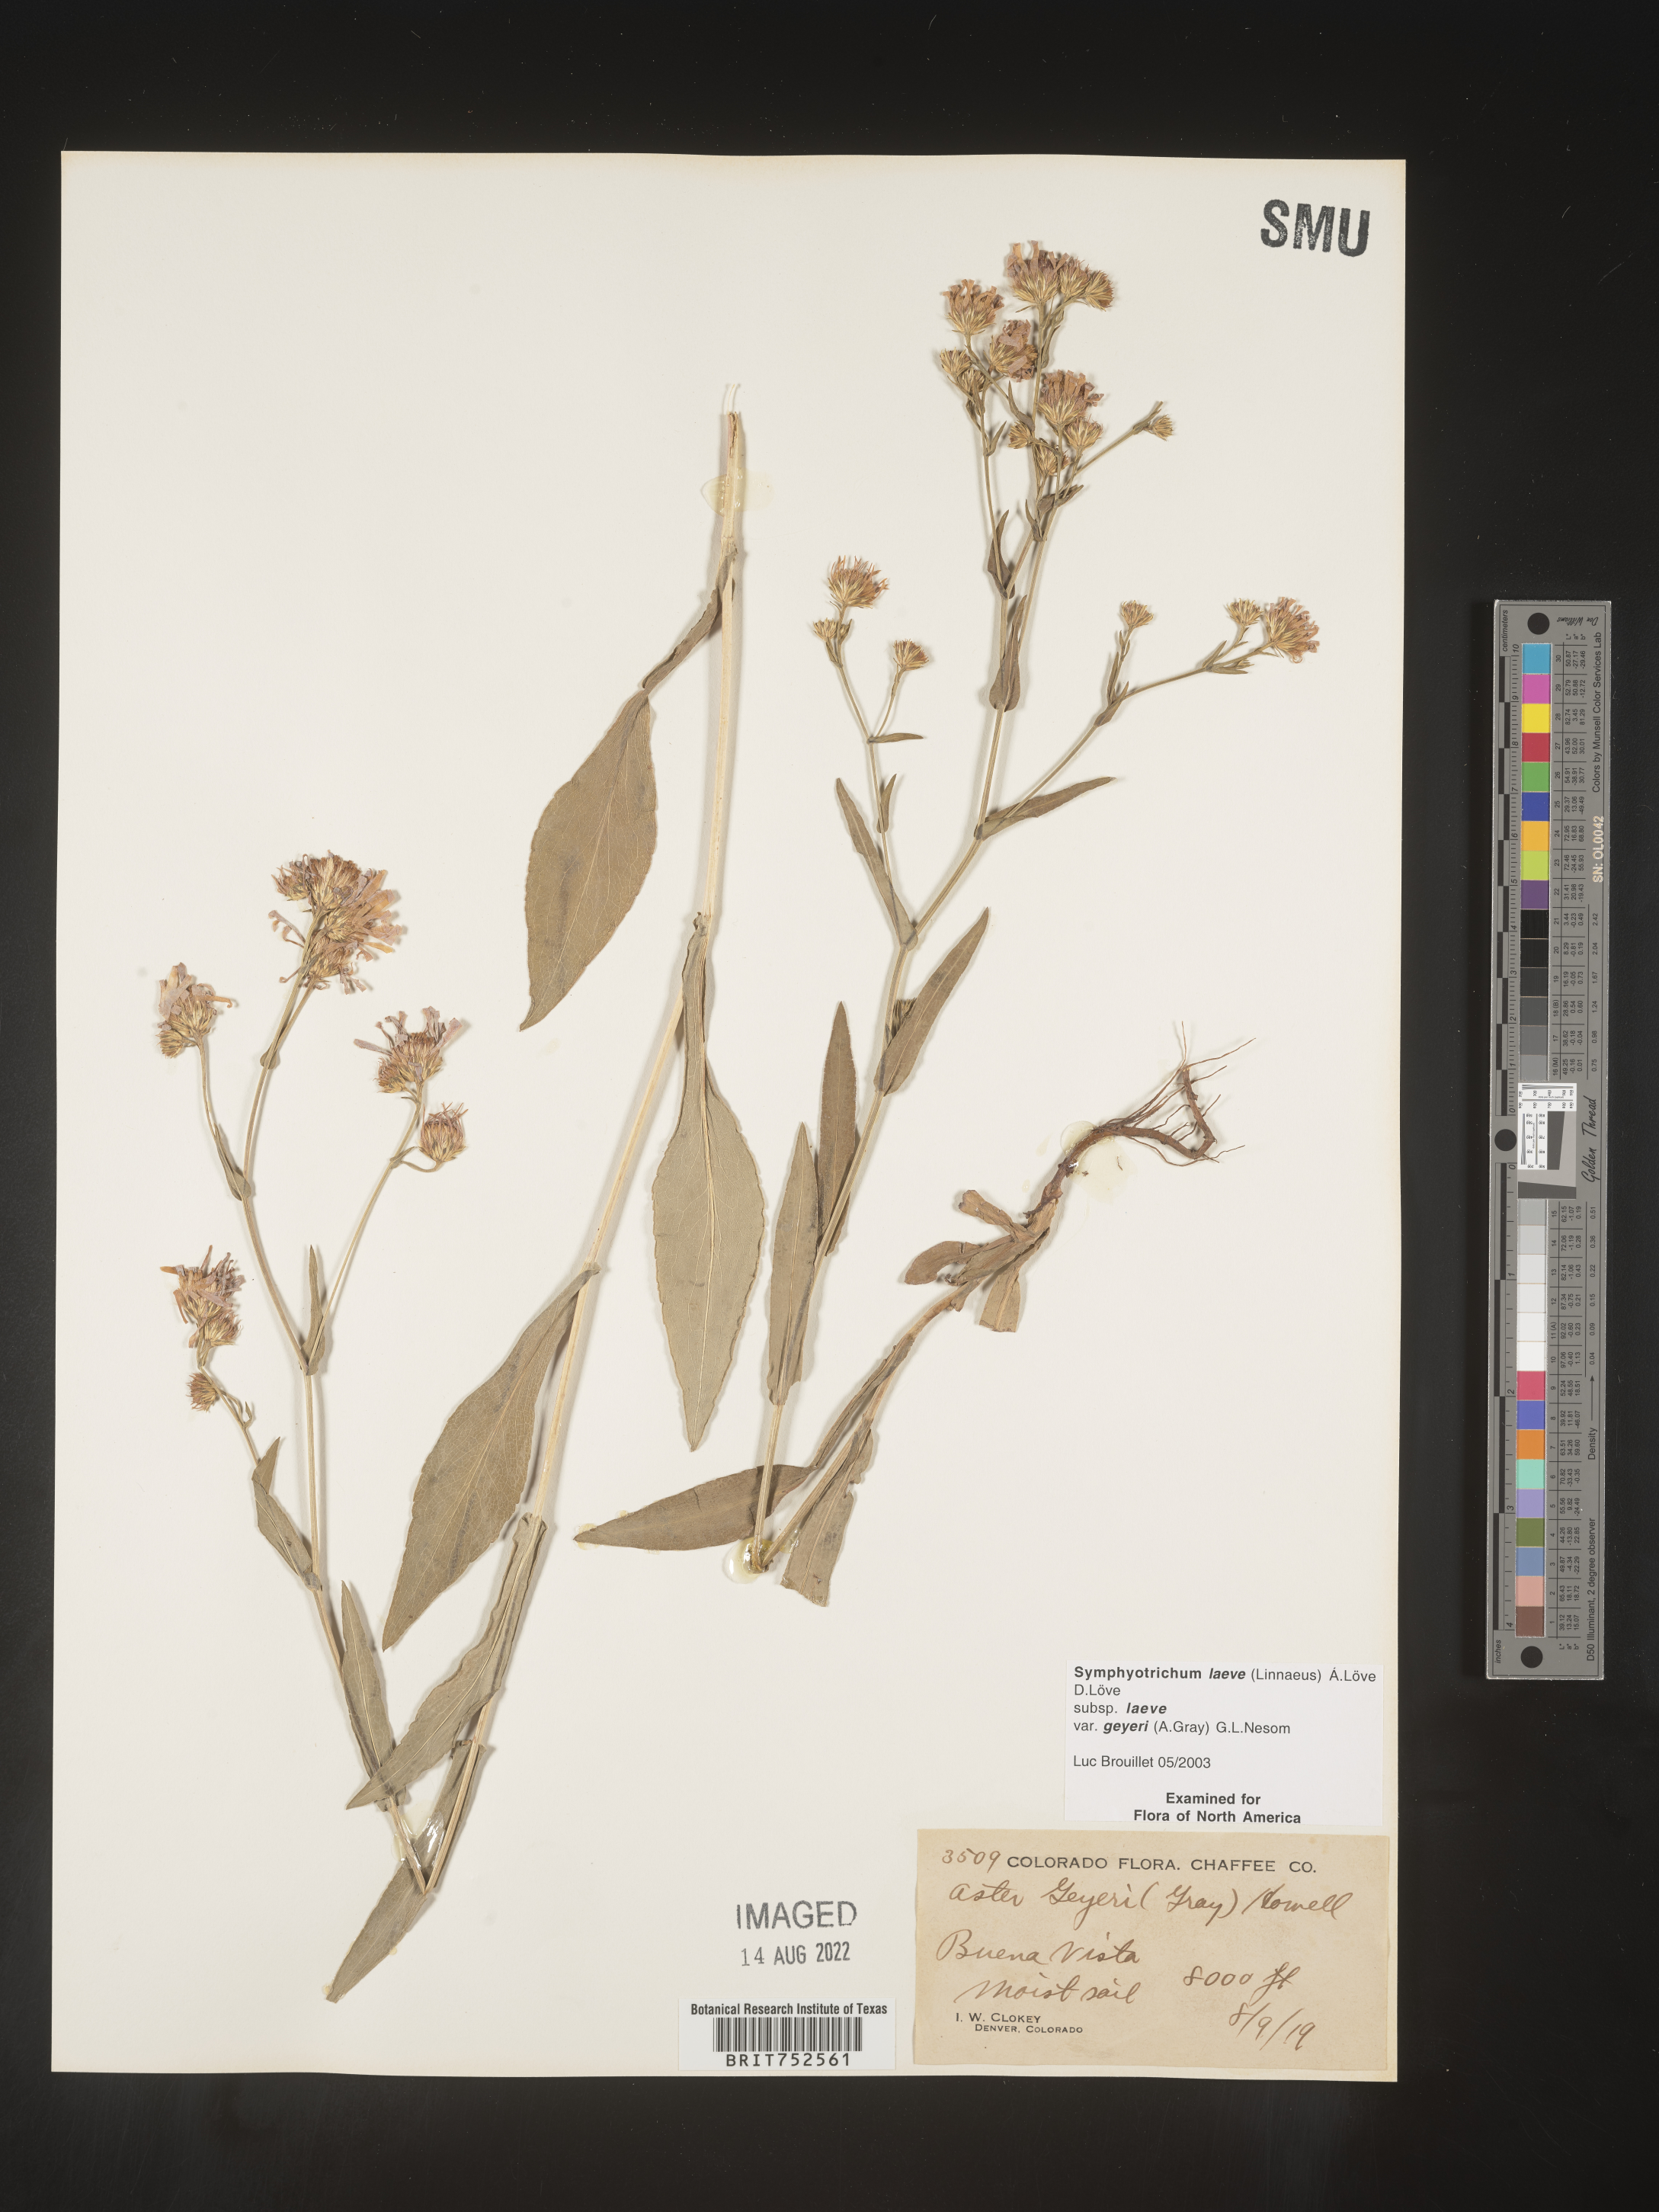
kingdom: Plantae
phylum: Tracheophyta
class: Magnoliopsida
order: Asterales
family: Asteraceae
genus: Symphyotrichum
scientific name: Symphyotrichum laeve
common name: Glaucous aster
